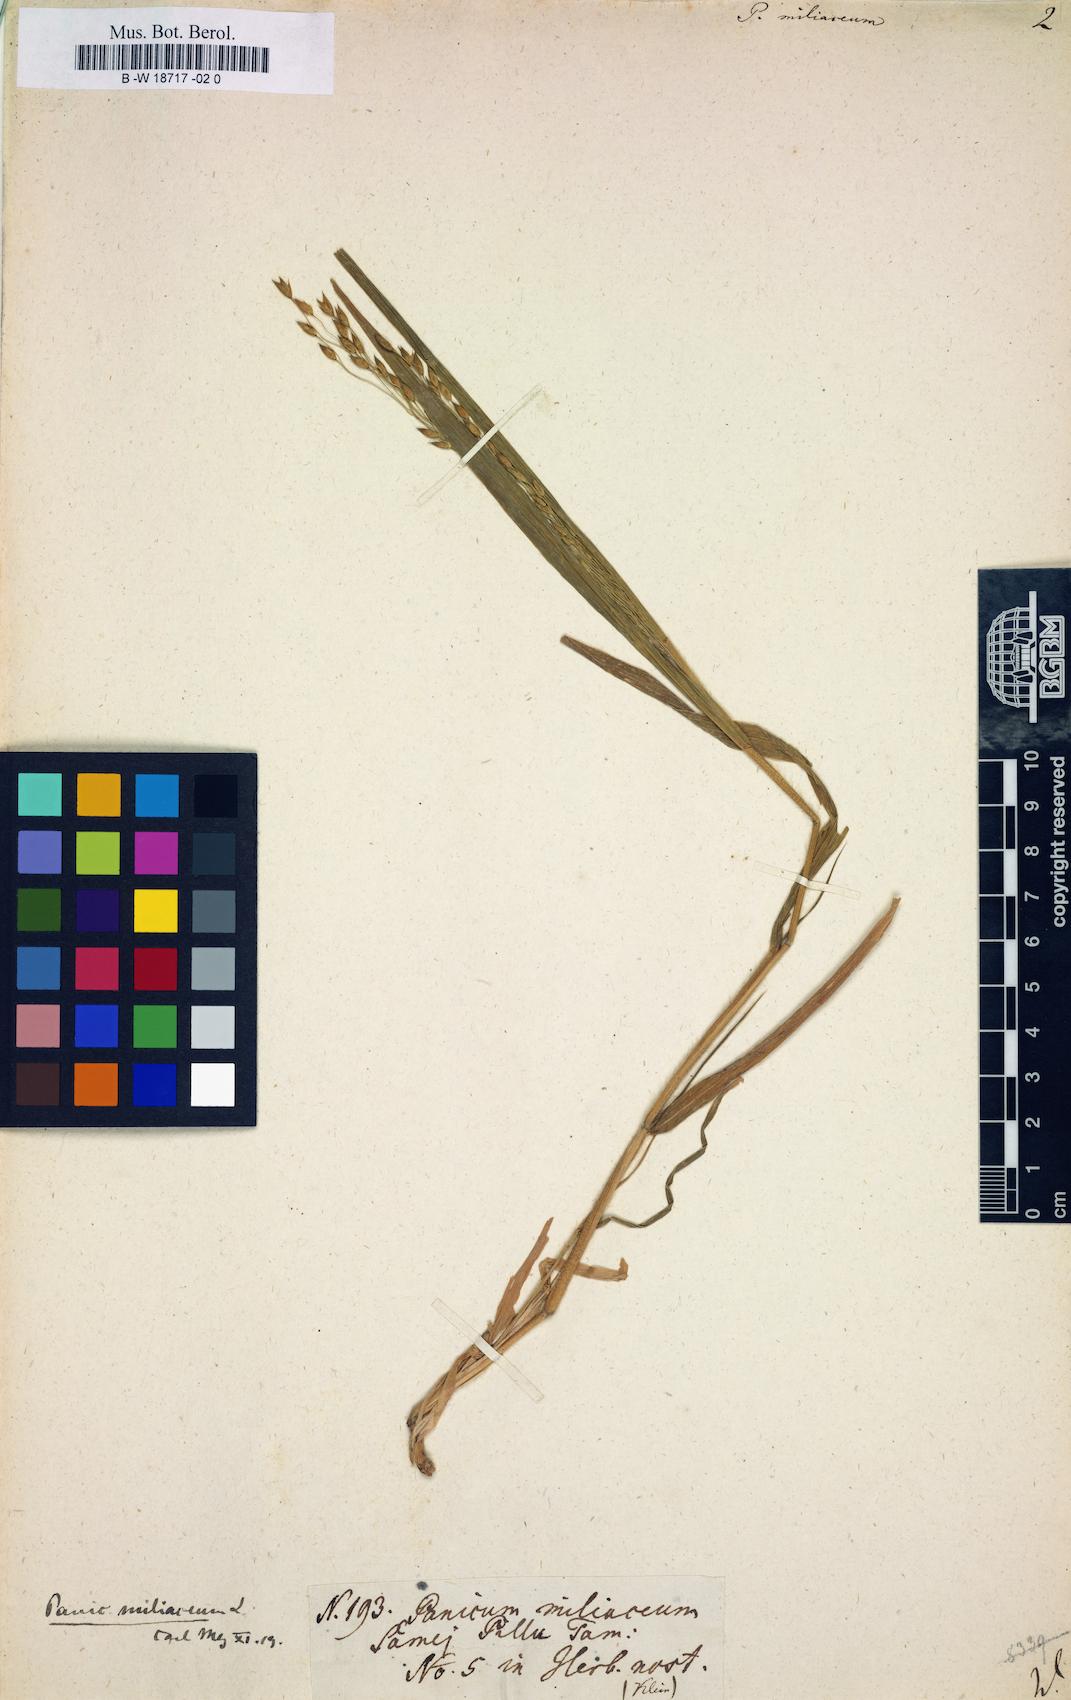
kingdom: Plantae
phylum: Tracheophyta
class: Liliopsida
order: Poales
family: Poaceae
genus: Panicum
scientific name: Panicum miliaceum
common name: Common millet
